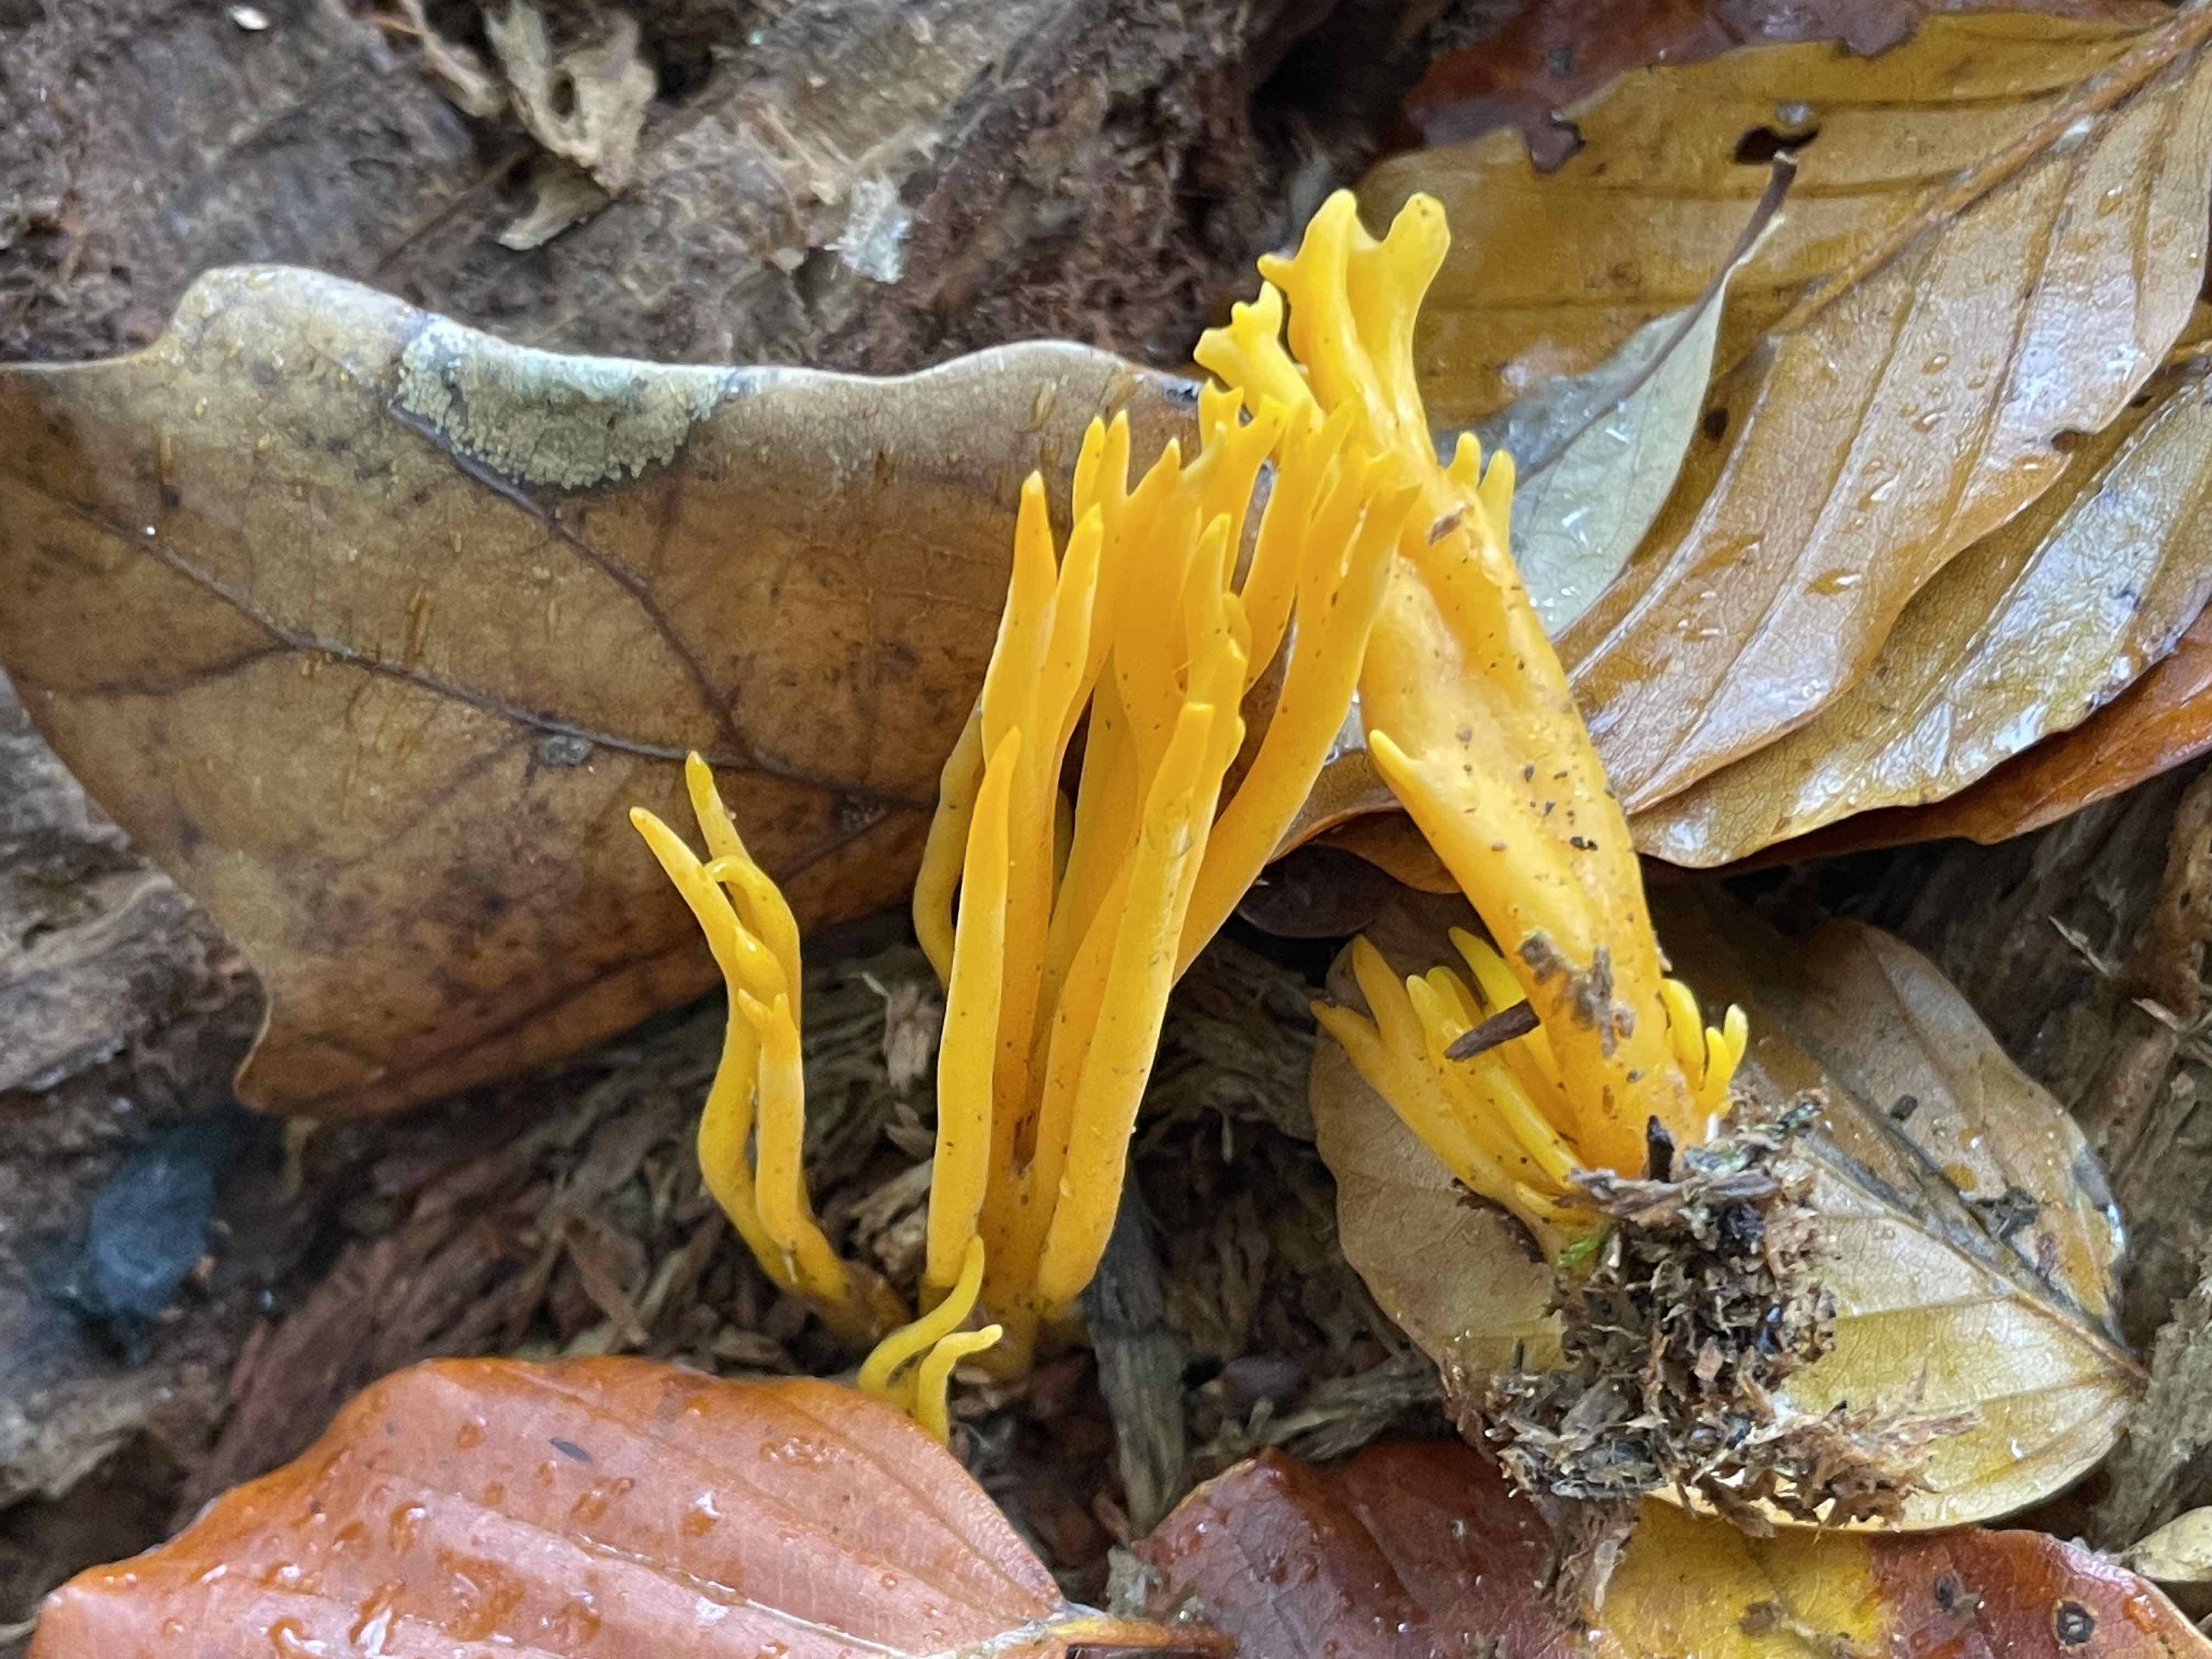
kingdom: Fungi
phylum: Basidiomycota
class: Dacrymycetes
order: Dacrymycetales
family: Dacrymycetaceae
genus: Calocera
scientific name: Calocera viscosa
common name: almindelig guldgaffel
